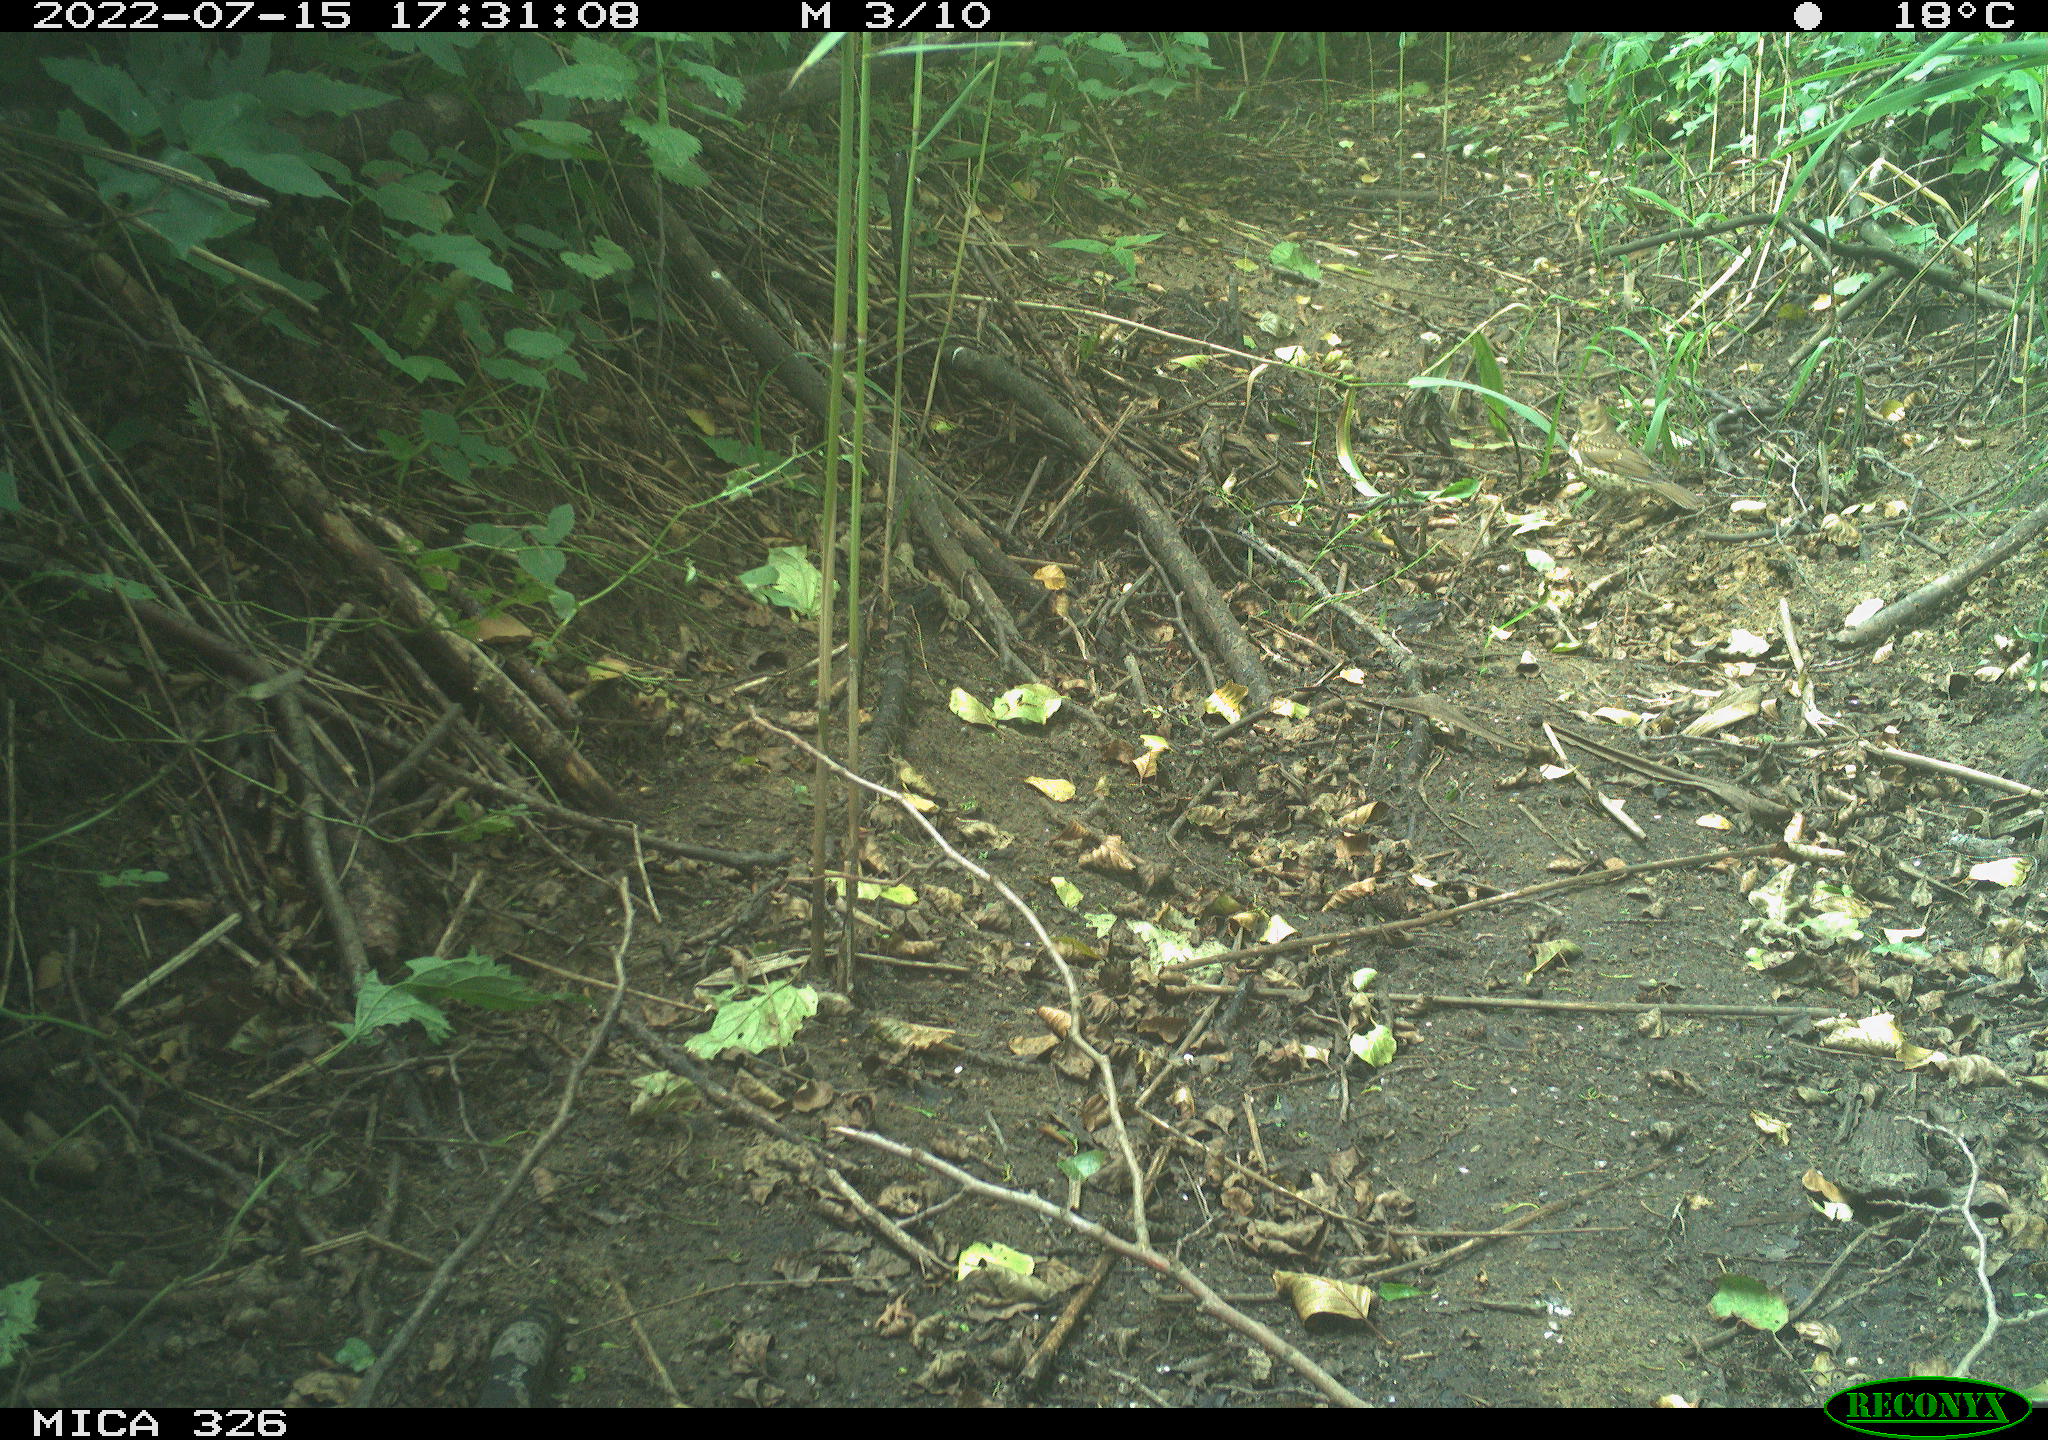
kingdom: Animalia
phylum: Chordata
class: Aves
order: Passeriformes
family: Turdidae
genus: Turdus
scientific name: Turdus philomelos
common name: Song thrush
